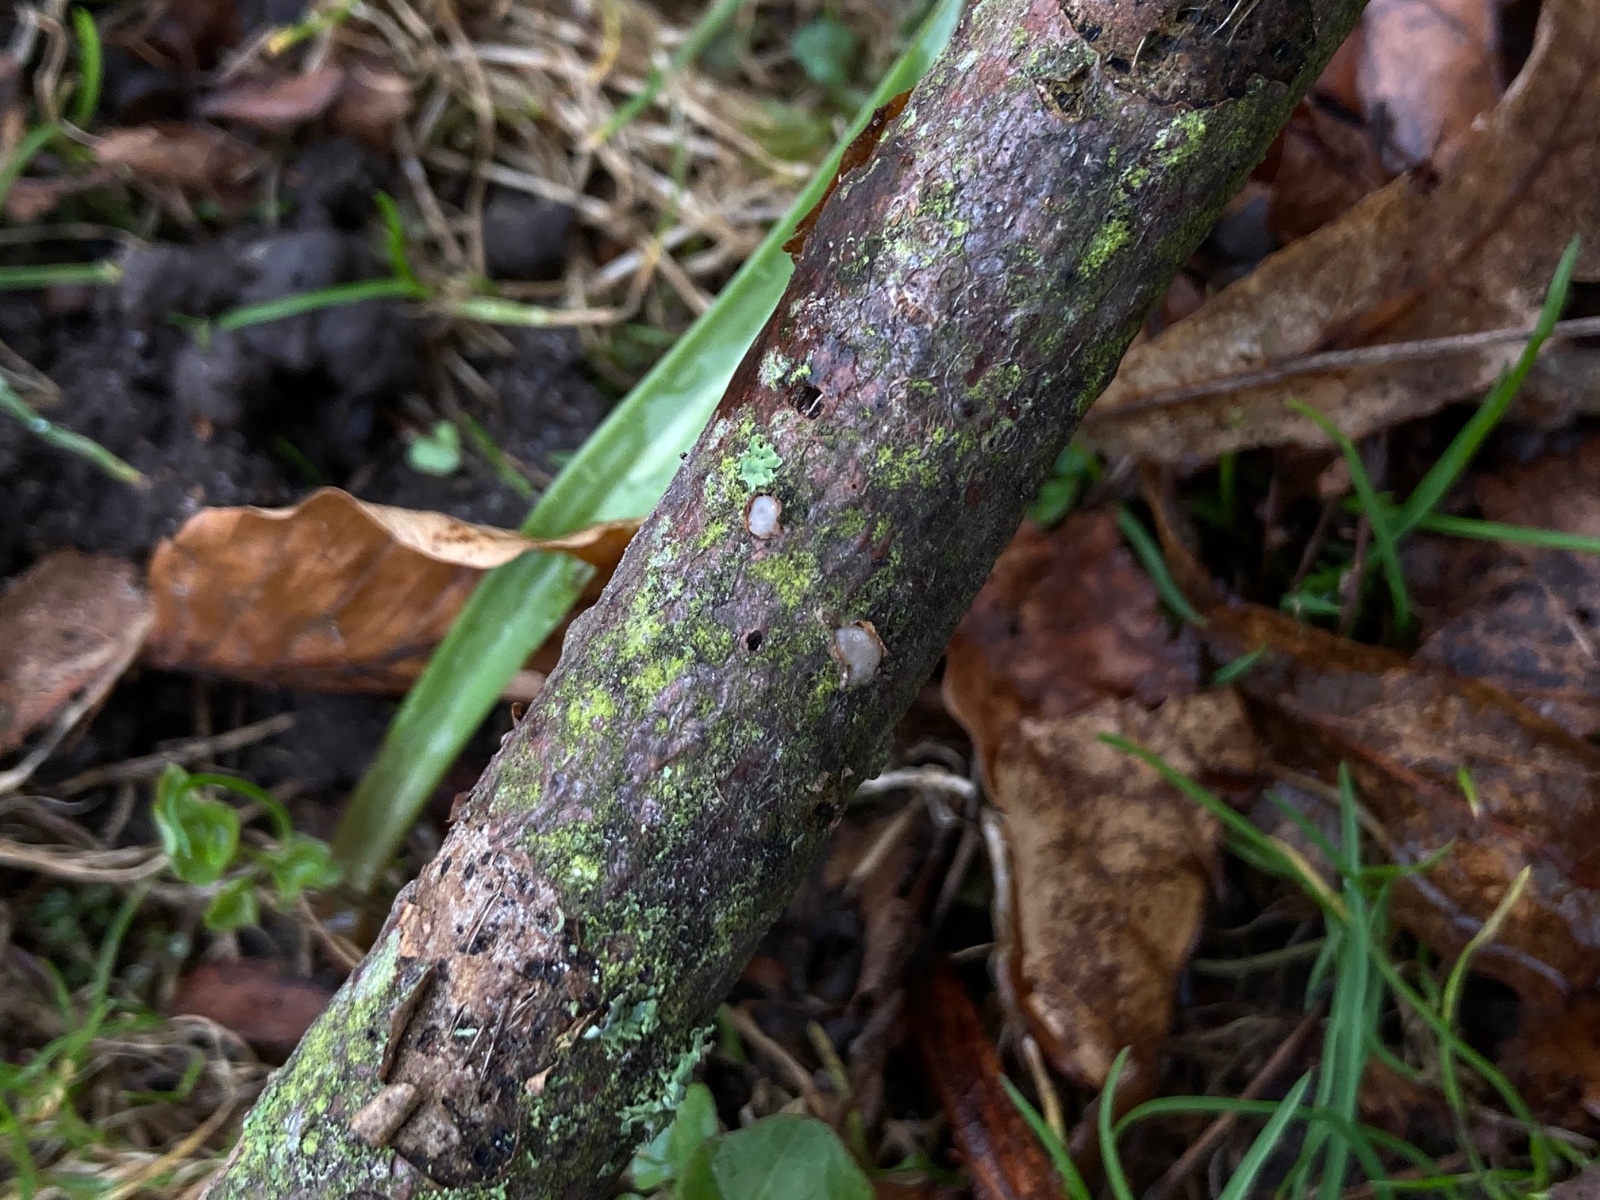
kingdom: Fungi
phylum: Basidiomycota
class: Pucciniomycetes
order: Platygloeales
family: Platygloeaceae
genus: Platygloea
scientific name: Platygloea disciformis
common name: linde-slimklat
